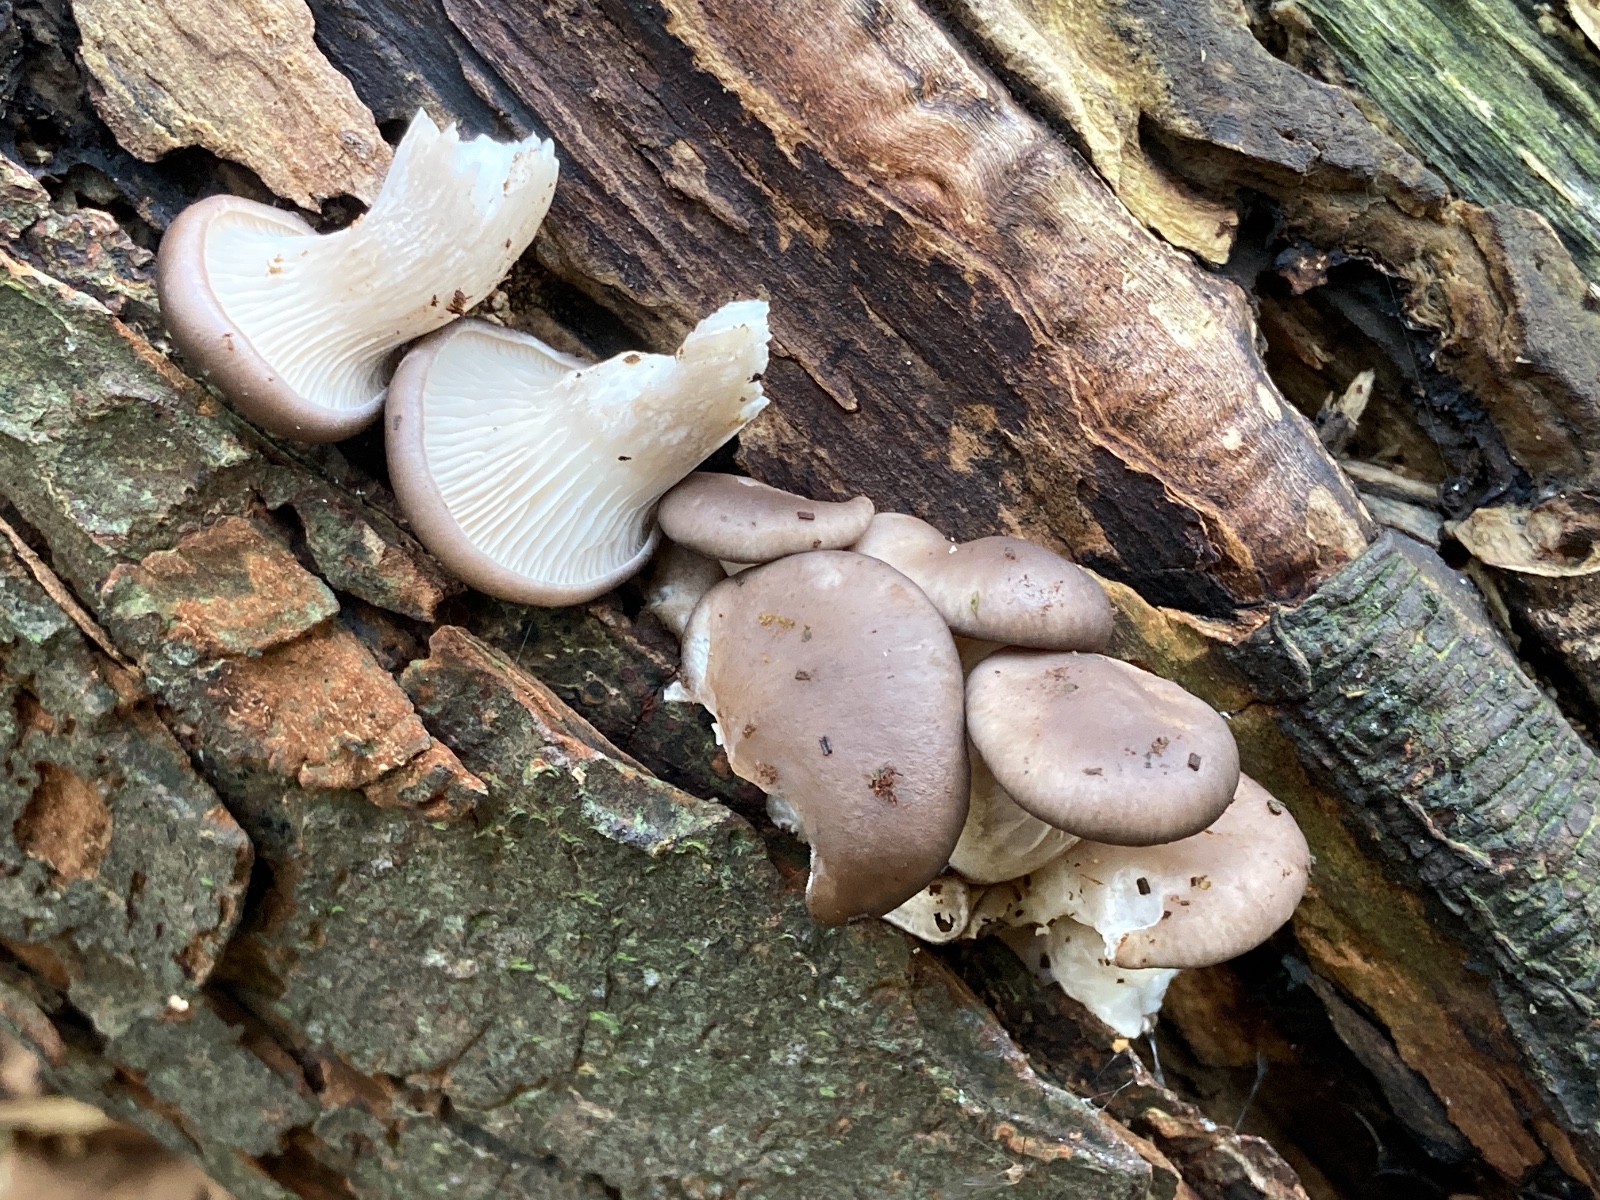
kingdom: Fungi
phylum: Basidiomycota
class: Agaricomycetes
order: Agaricales
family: Pleurotaceae
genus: Pleurotus
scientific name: Pleurotus ostreatus
